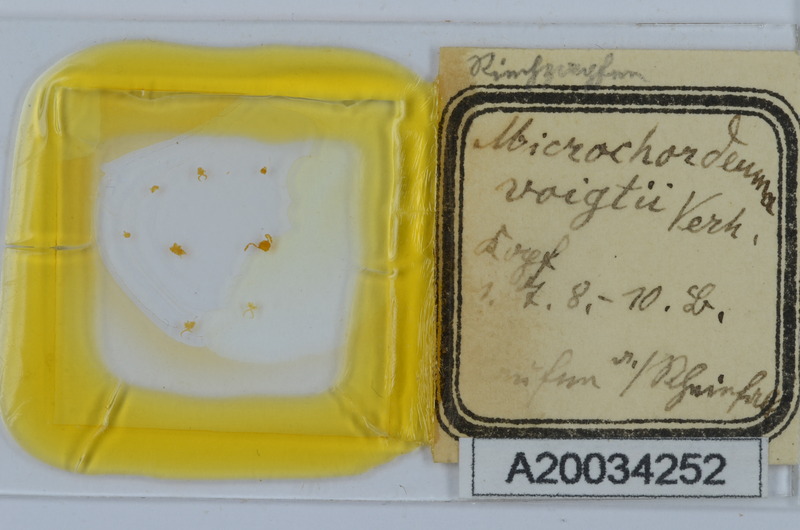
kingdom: Animalia
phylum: Arthropoda
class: Diplopoda
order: Chordeumatida
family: Chordeumatidae
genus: Melogona
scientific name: Melogona voigtii
